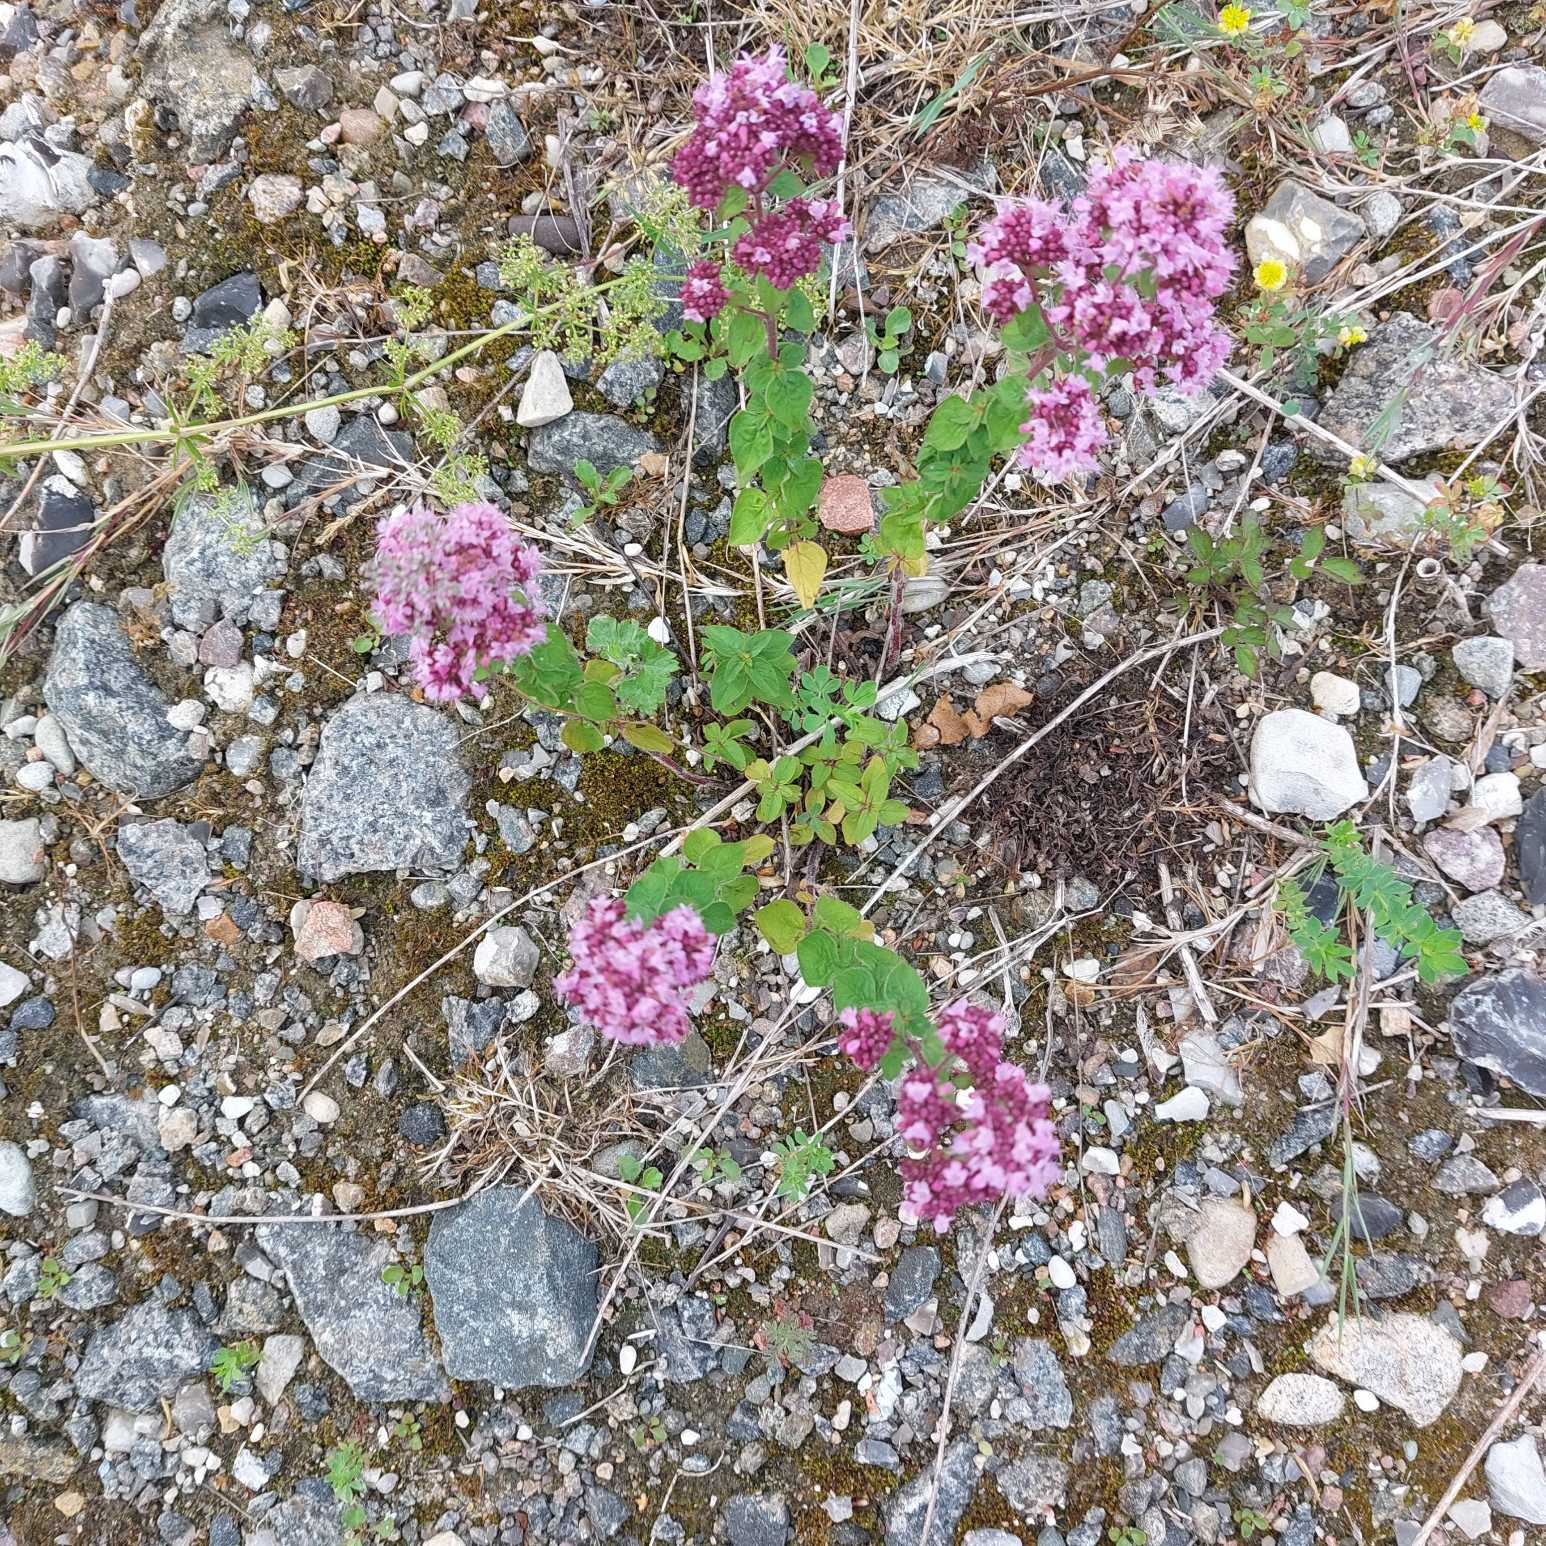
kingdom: Plantae
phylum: Tracheophyta
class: Magnoliopsida
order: Lamiales
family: Lamiaceae
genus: Origanum
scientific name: Origanum vulgare
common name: Merian
